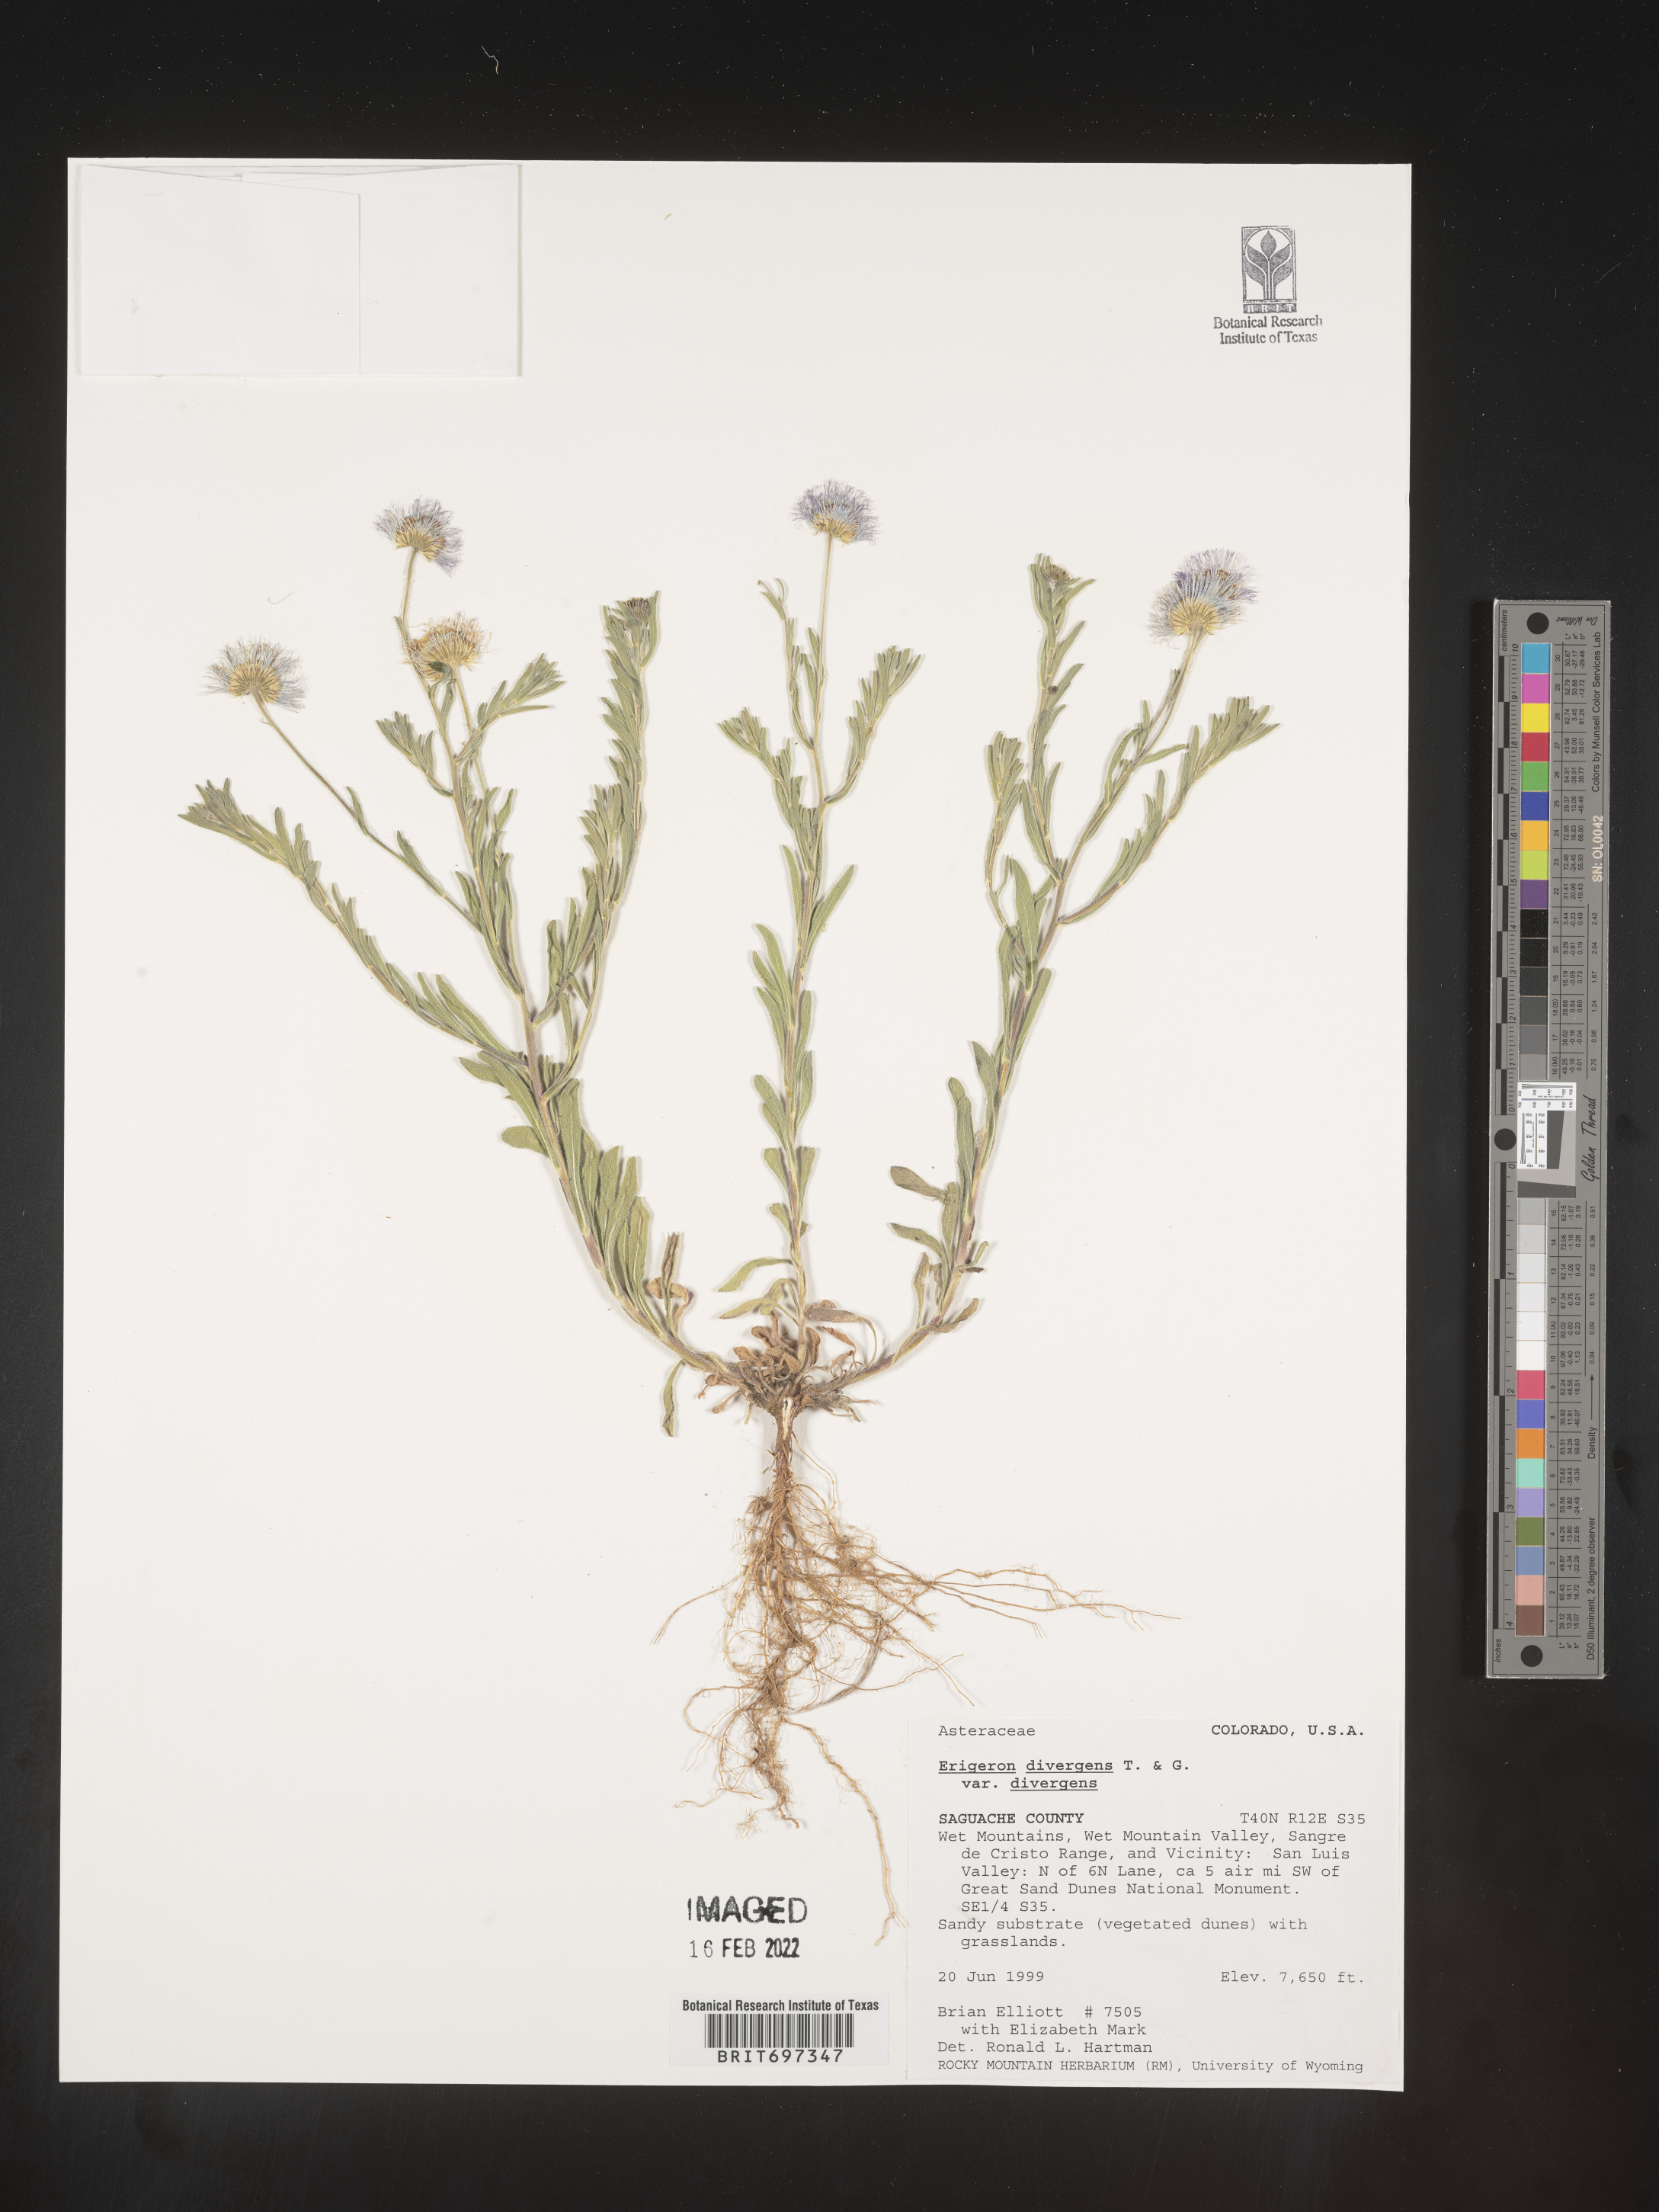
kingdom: Plantae
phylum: Tracheophyta
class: Magnoliopsida
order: Asterales
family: Asteraceae
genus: Erigeron
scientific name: Erigeron divergens
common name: Diffuse fleabane
